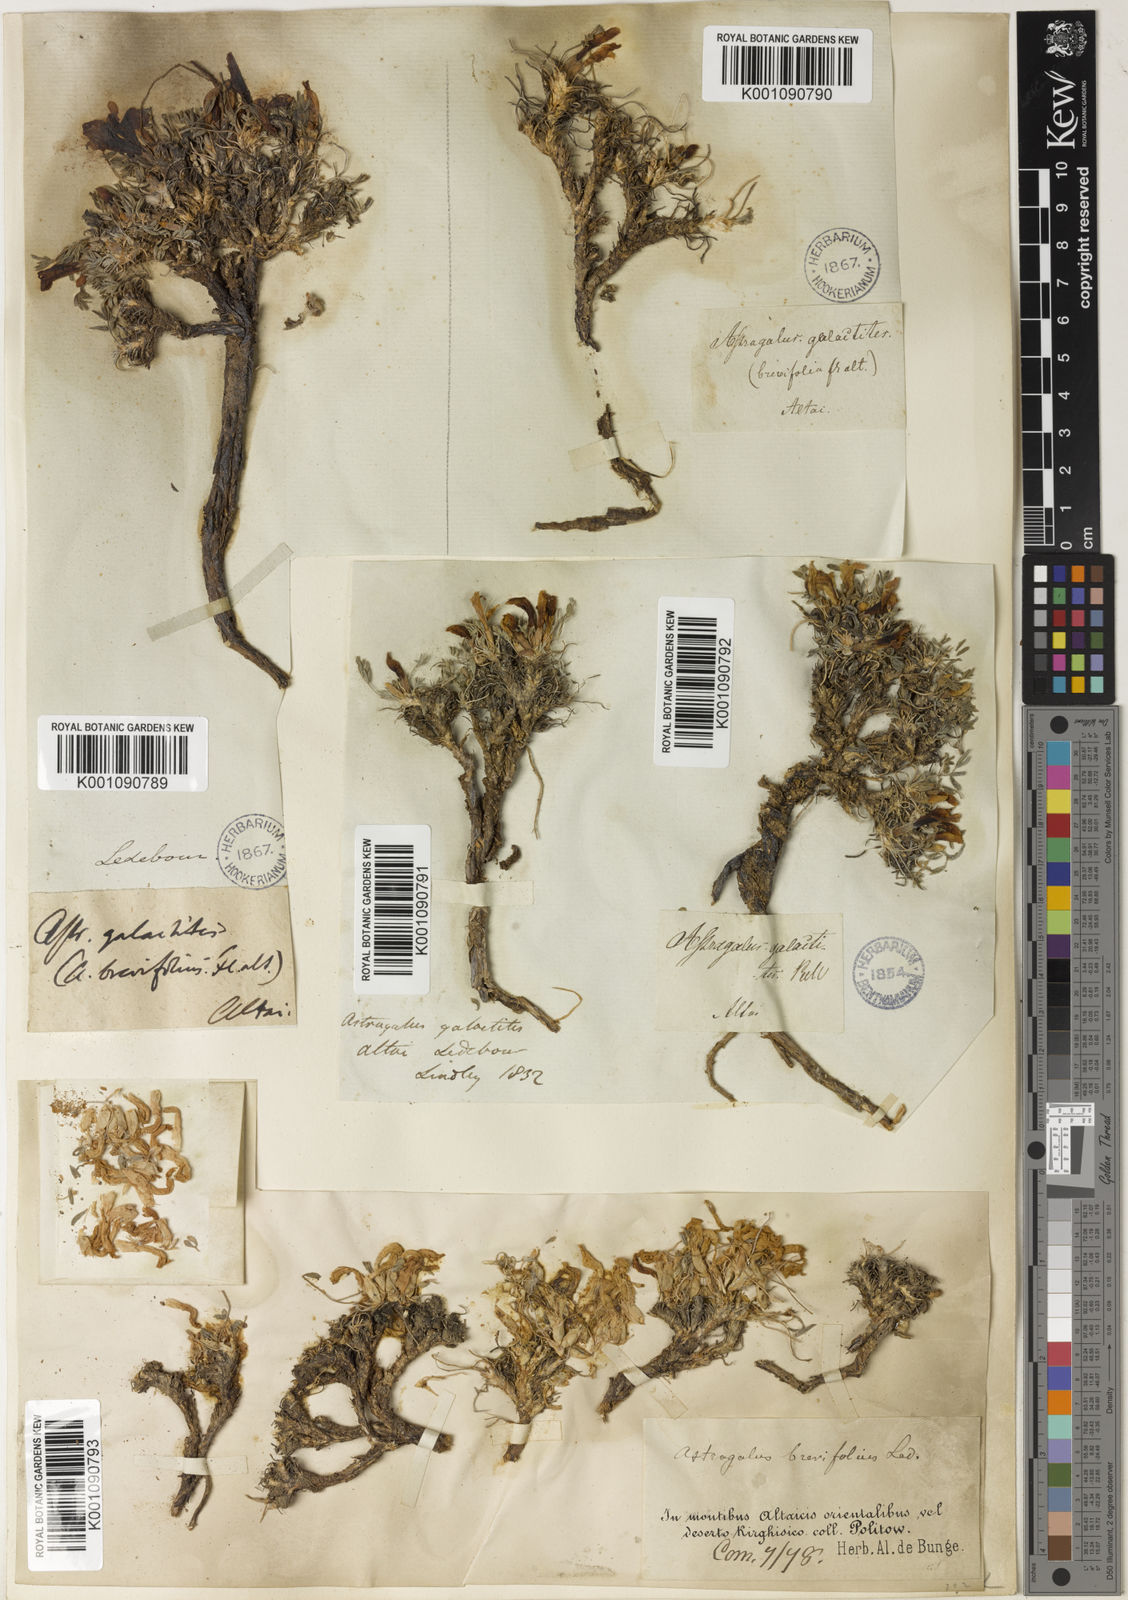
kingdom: Plantae
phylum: Tracheophyta
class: Magnoliopsida
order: Fabales
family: Fabaceae
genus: Astragalus
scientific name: Astragalus
